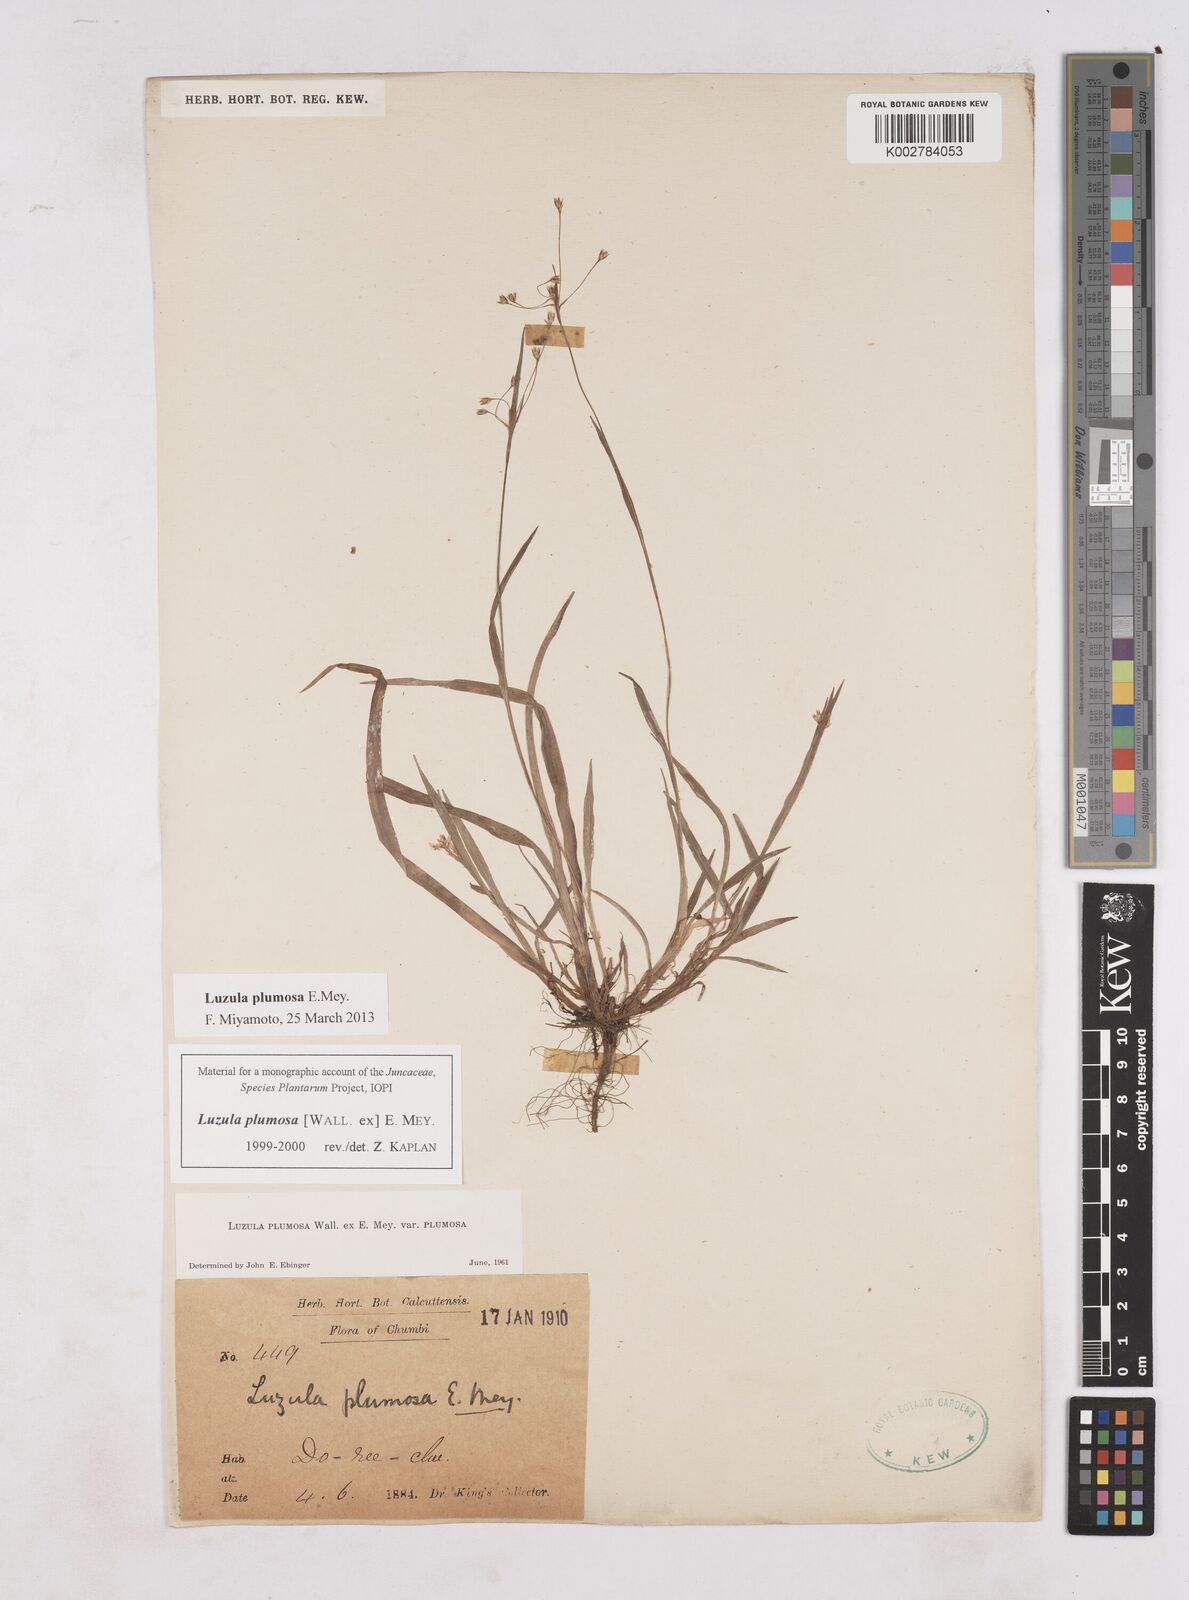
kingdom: Plantae
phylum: Tracheophyta
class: Liliopsida
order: Poales
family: Juncaceae
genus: Luzula
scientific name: Luzula plumosa
